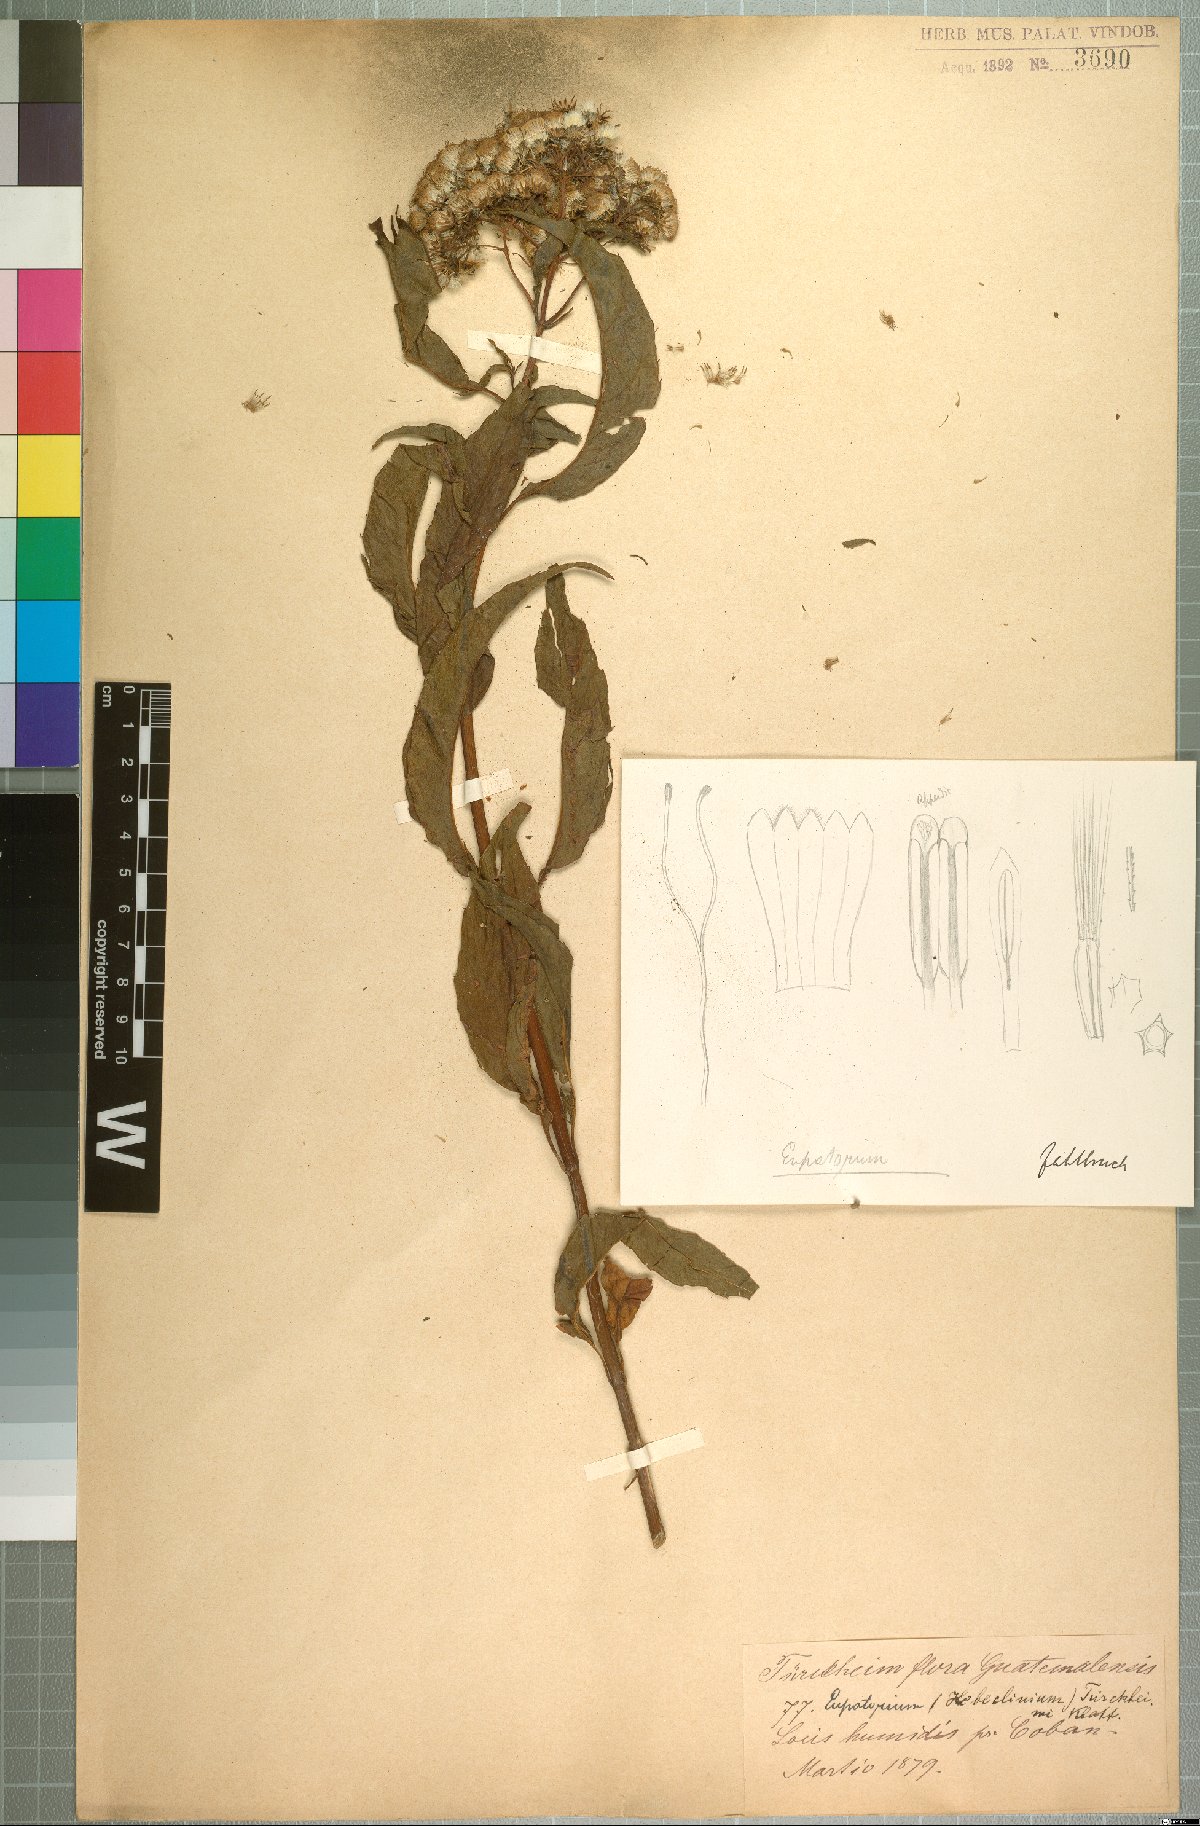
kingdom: Plantae
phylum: Tracheophyta
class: Magnoliopsida
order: Asterales
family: Asteraceae
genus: Bartlettina
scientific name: Bartlettina tuerckheimii
